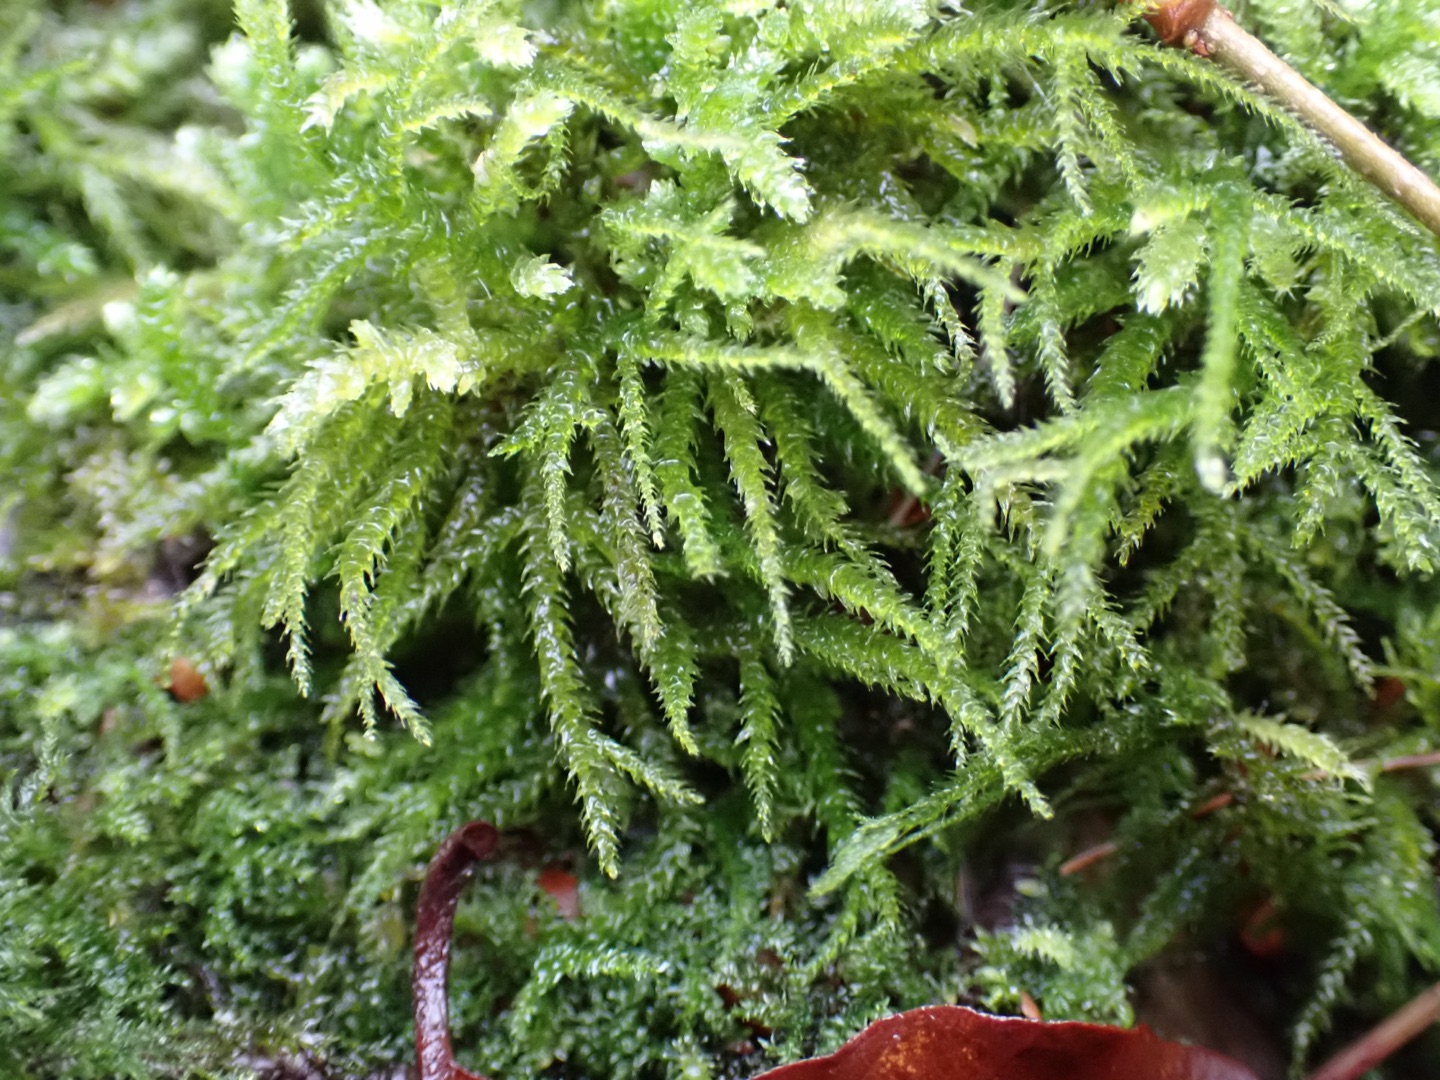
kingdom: Plantae
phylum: Bryophyta
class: Bryopsida
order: Hypnales
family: Brachytheciaceae
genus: Eurhynchium
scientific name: Eurhynchium striatum
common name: Stribet næbmos
